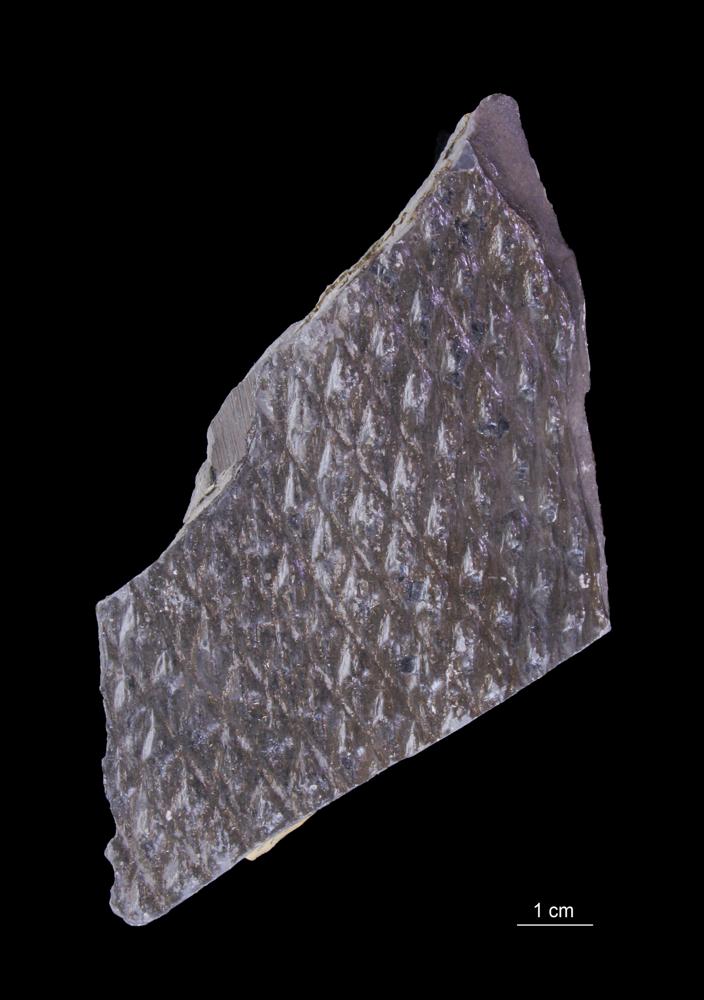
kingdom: Plantae
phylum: Tracheophyta
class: Lycopodiopsida
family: Lepidodendraceae
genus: Lepidodendron
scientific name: Lepidodendron
